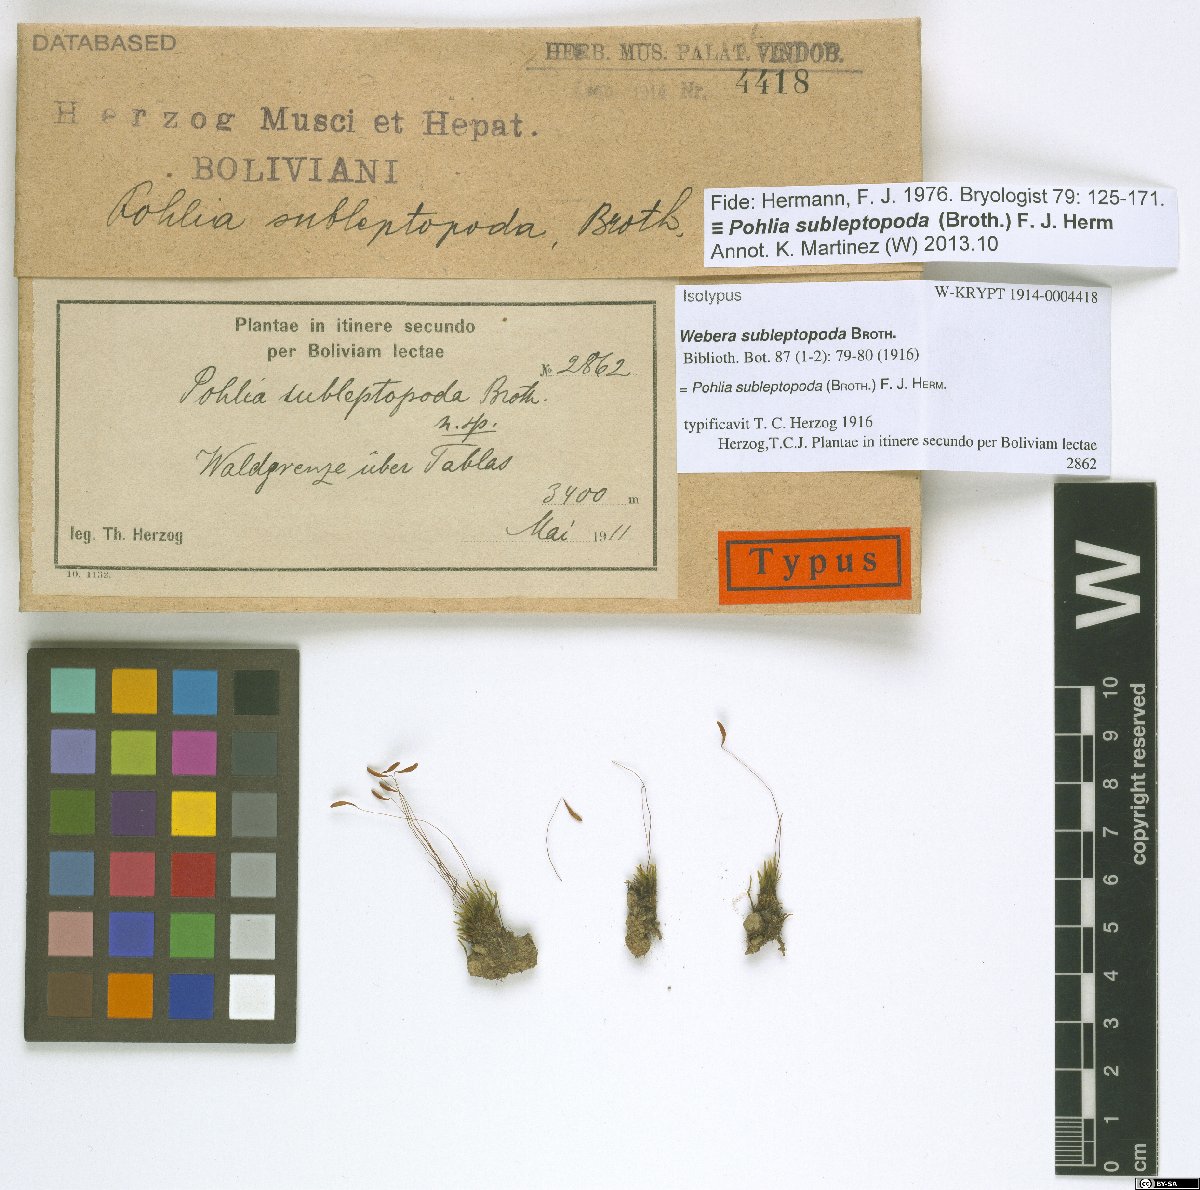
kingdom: Plantae
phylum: Bryophyta
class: Bryopsida
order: Bryales
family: Mniaceae
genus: Pohlia
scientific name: Pohlia elongata
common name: Long-fruited thread-moss
